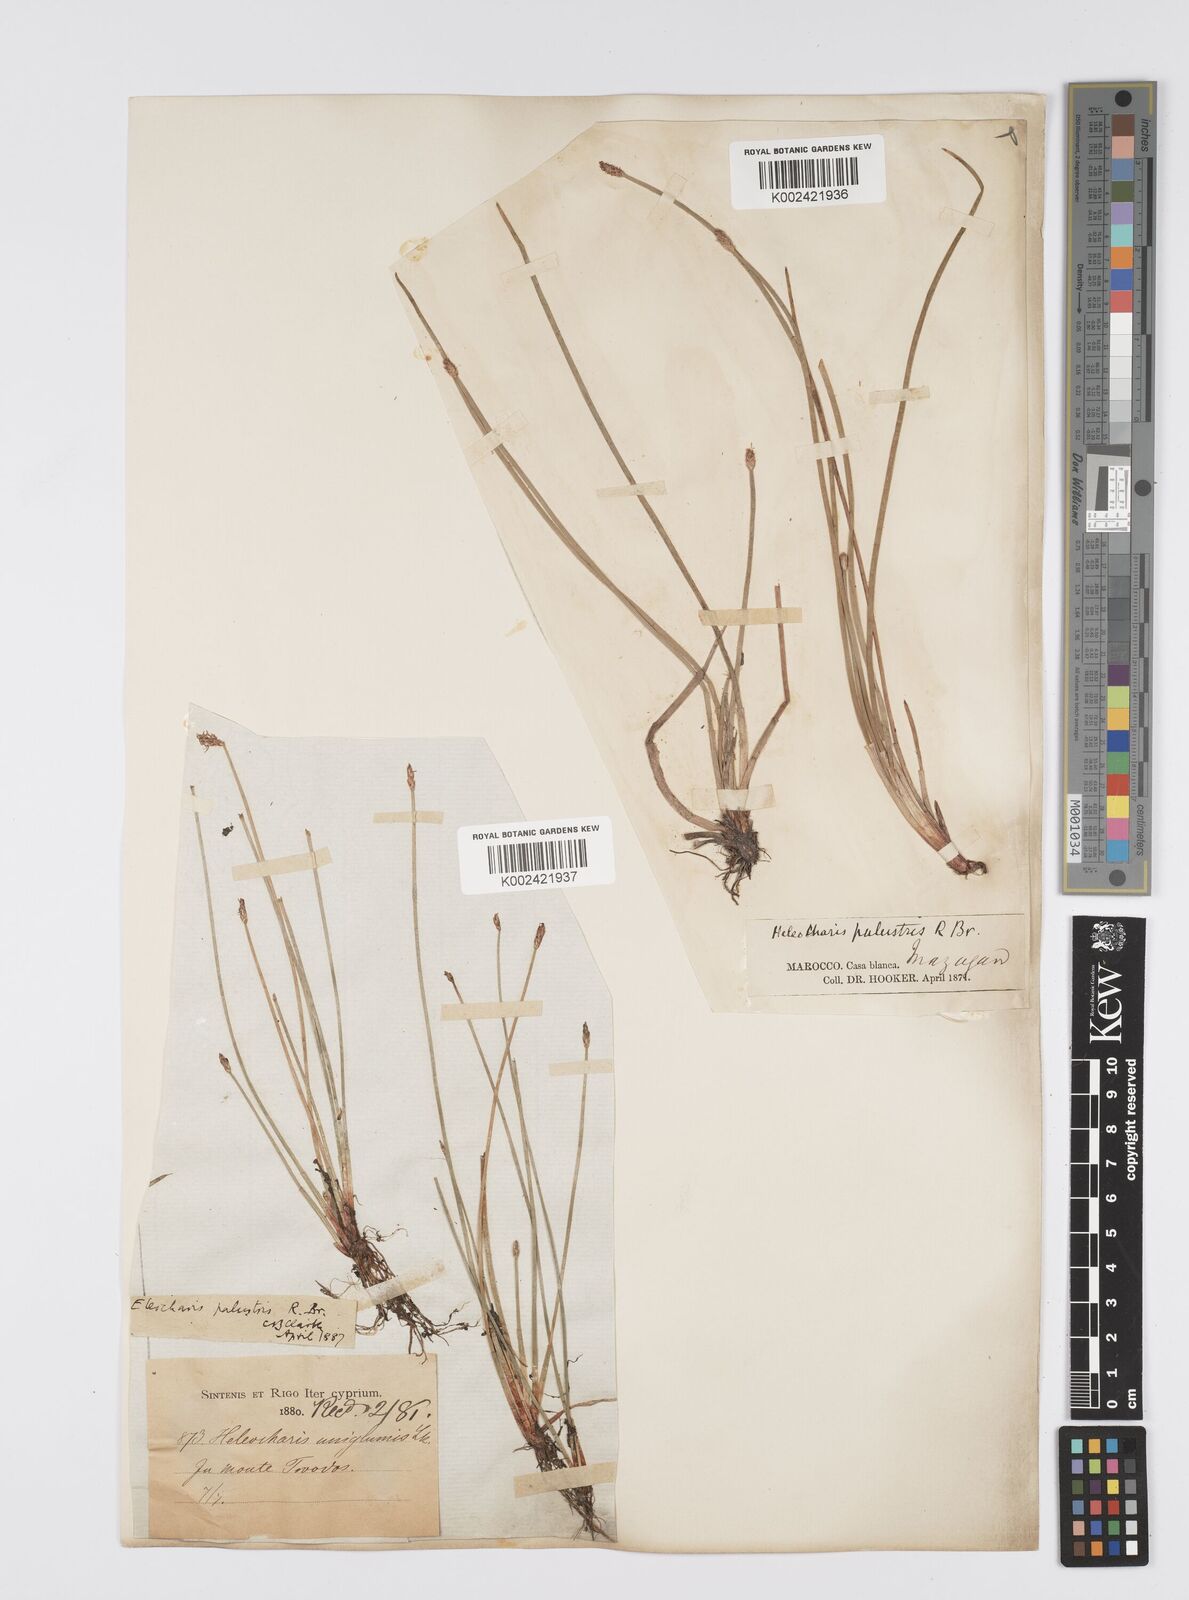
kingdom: Plantae
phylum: Tracheophyta
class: Liliopsida
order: Poales
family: Cyperaceae
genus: Eleocharis
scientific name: Eleocharis palustris
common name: Common spike-rush
